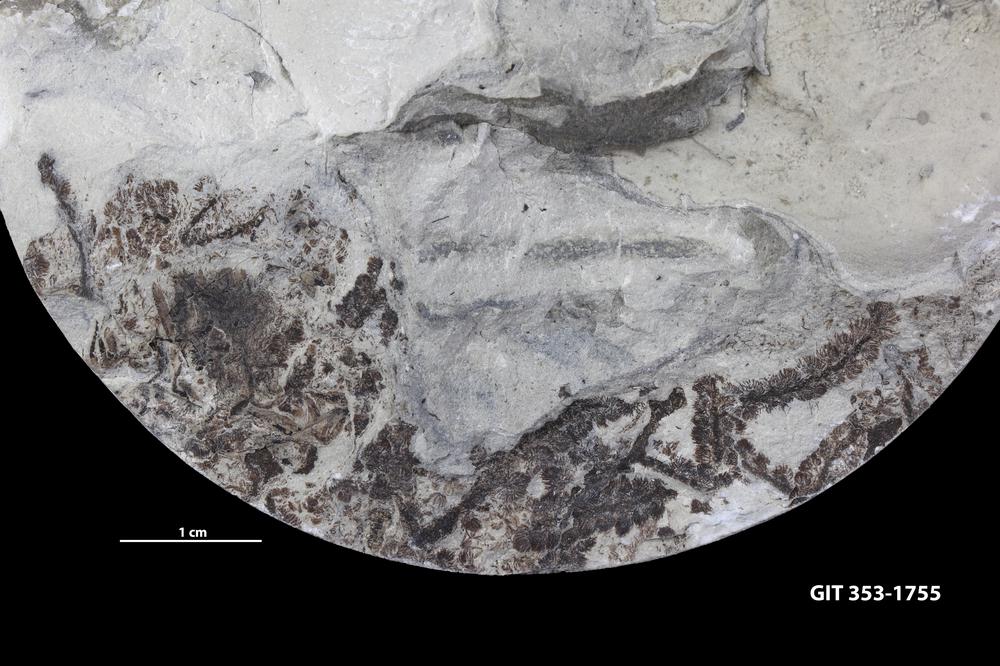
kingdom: Plantae
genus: Leveilleites
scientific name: Leveilleites hartnageli
